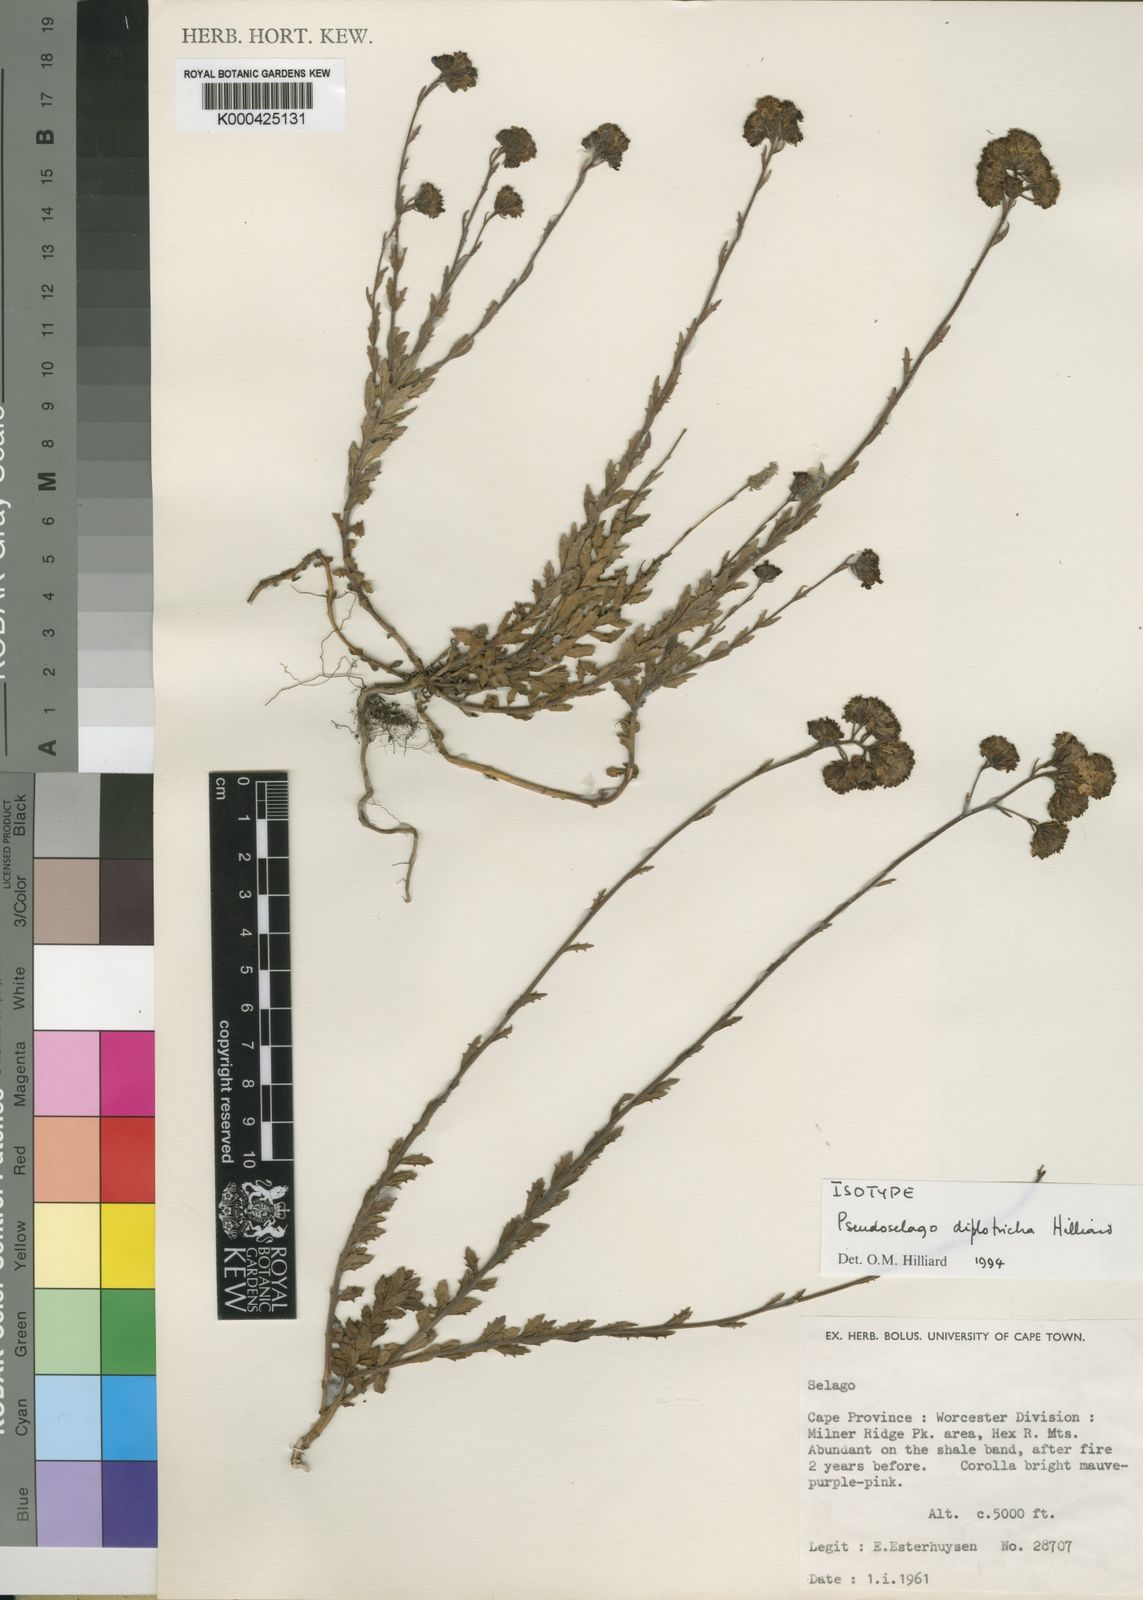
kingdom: Plantae
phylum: Tracheophyta
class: Magnoliopsida
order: Lamiales
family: Scrophulariaceae
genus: Pseudoselago
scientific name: Pseudoselago diplotricha
